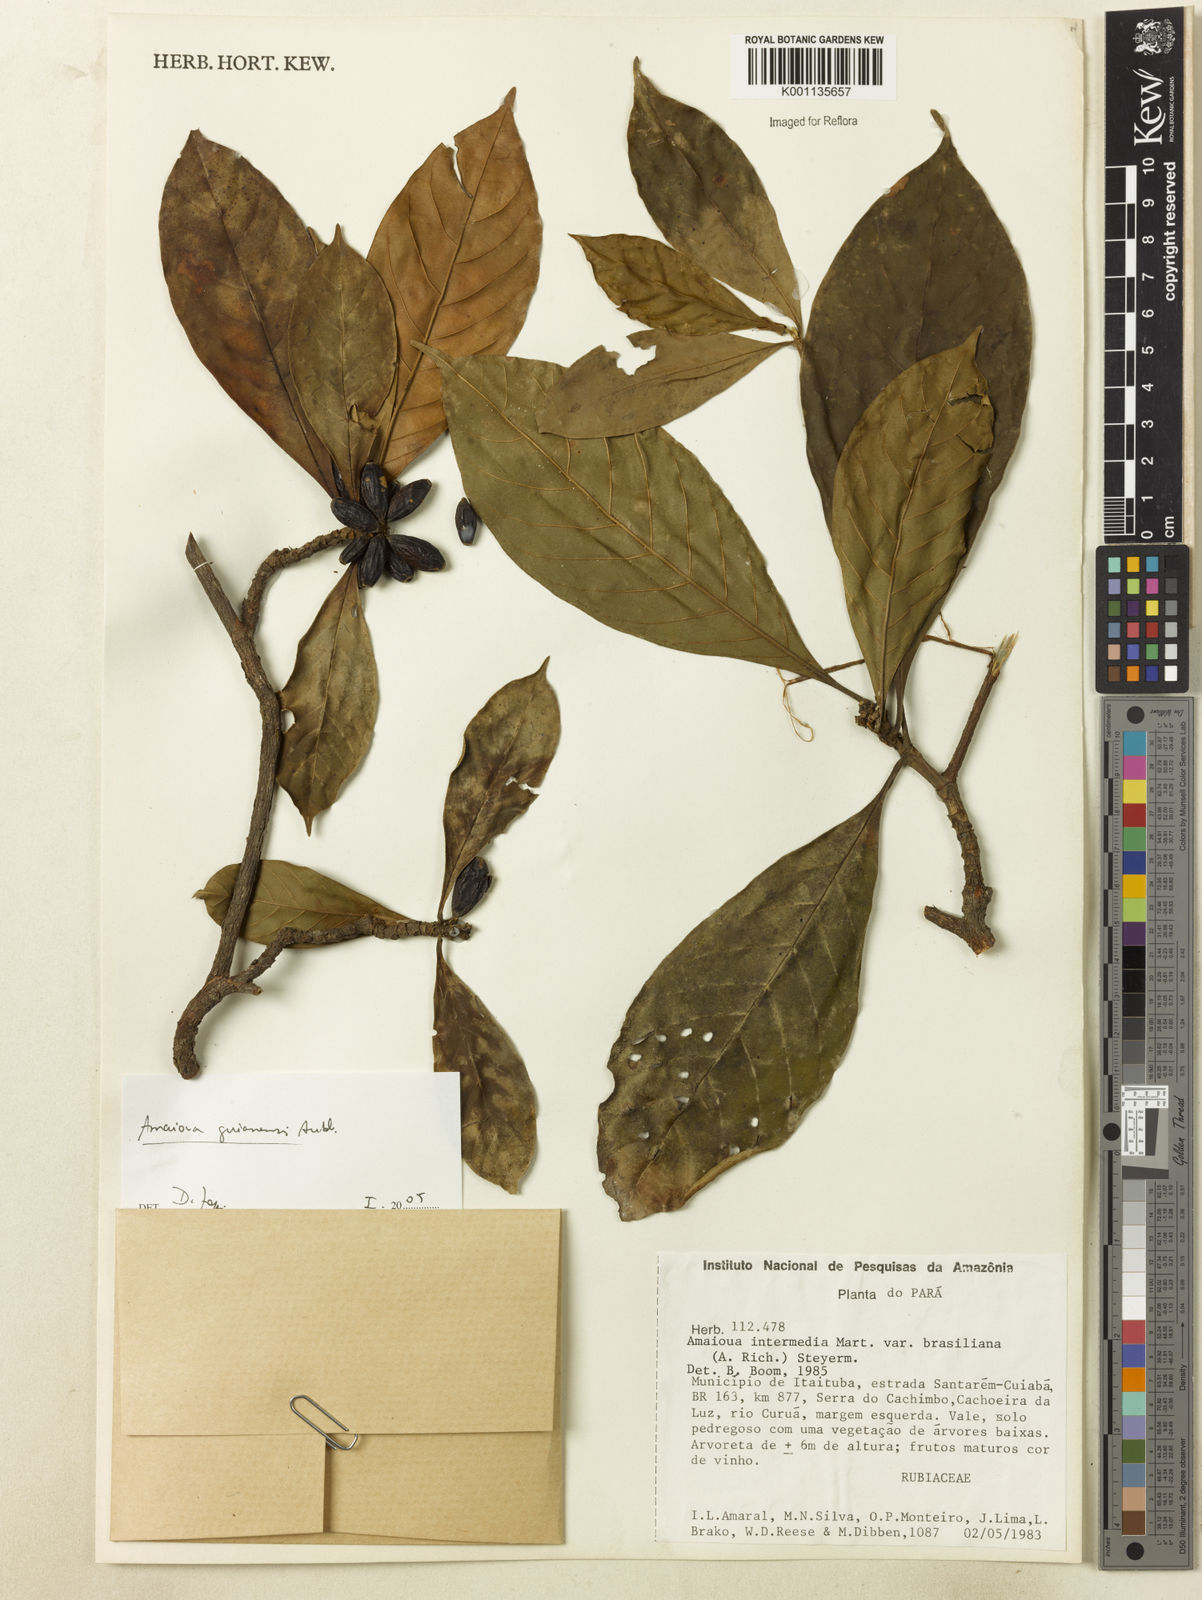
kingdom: Plantae
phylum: Tracheophyta
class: Magnoliopsida
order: Gentianales
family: Rubiaceae
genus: Amaioua
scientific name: Amaioua guianensis
